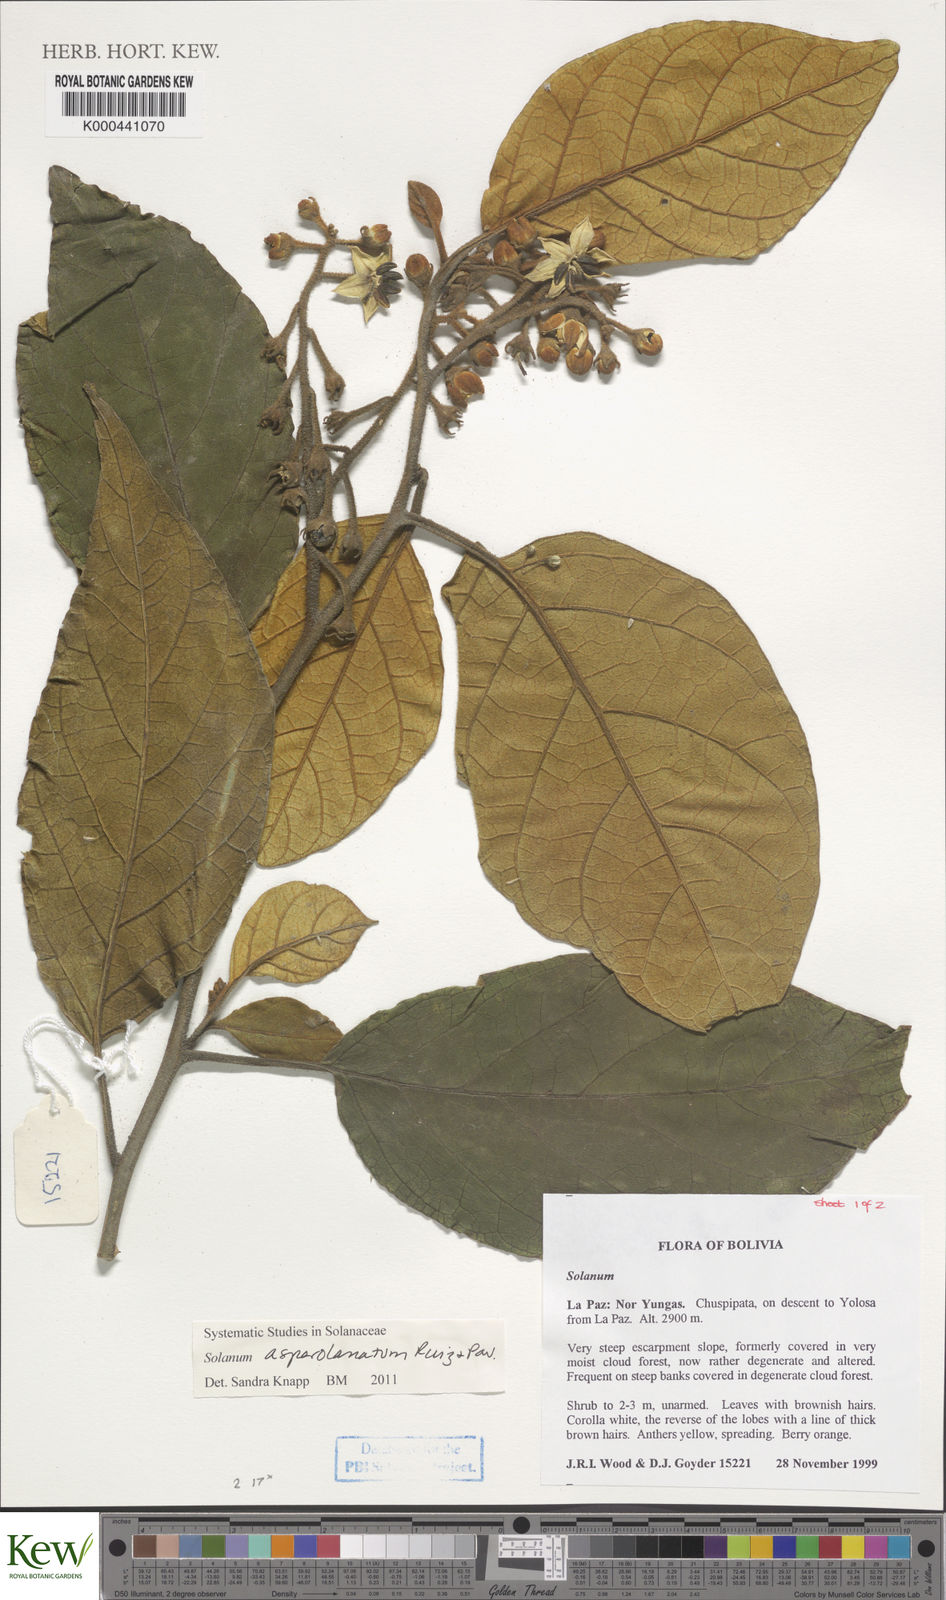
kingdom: Plantae
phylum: Tracheophyta
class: Magnoliopsida
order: Solanales
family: Solanaceae
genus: Solanum
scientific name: Solanum asperolanatum
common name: Devil's-fig
